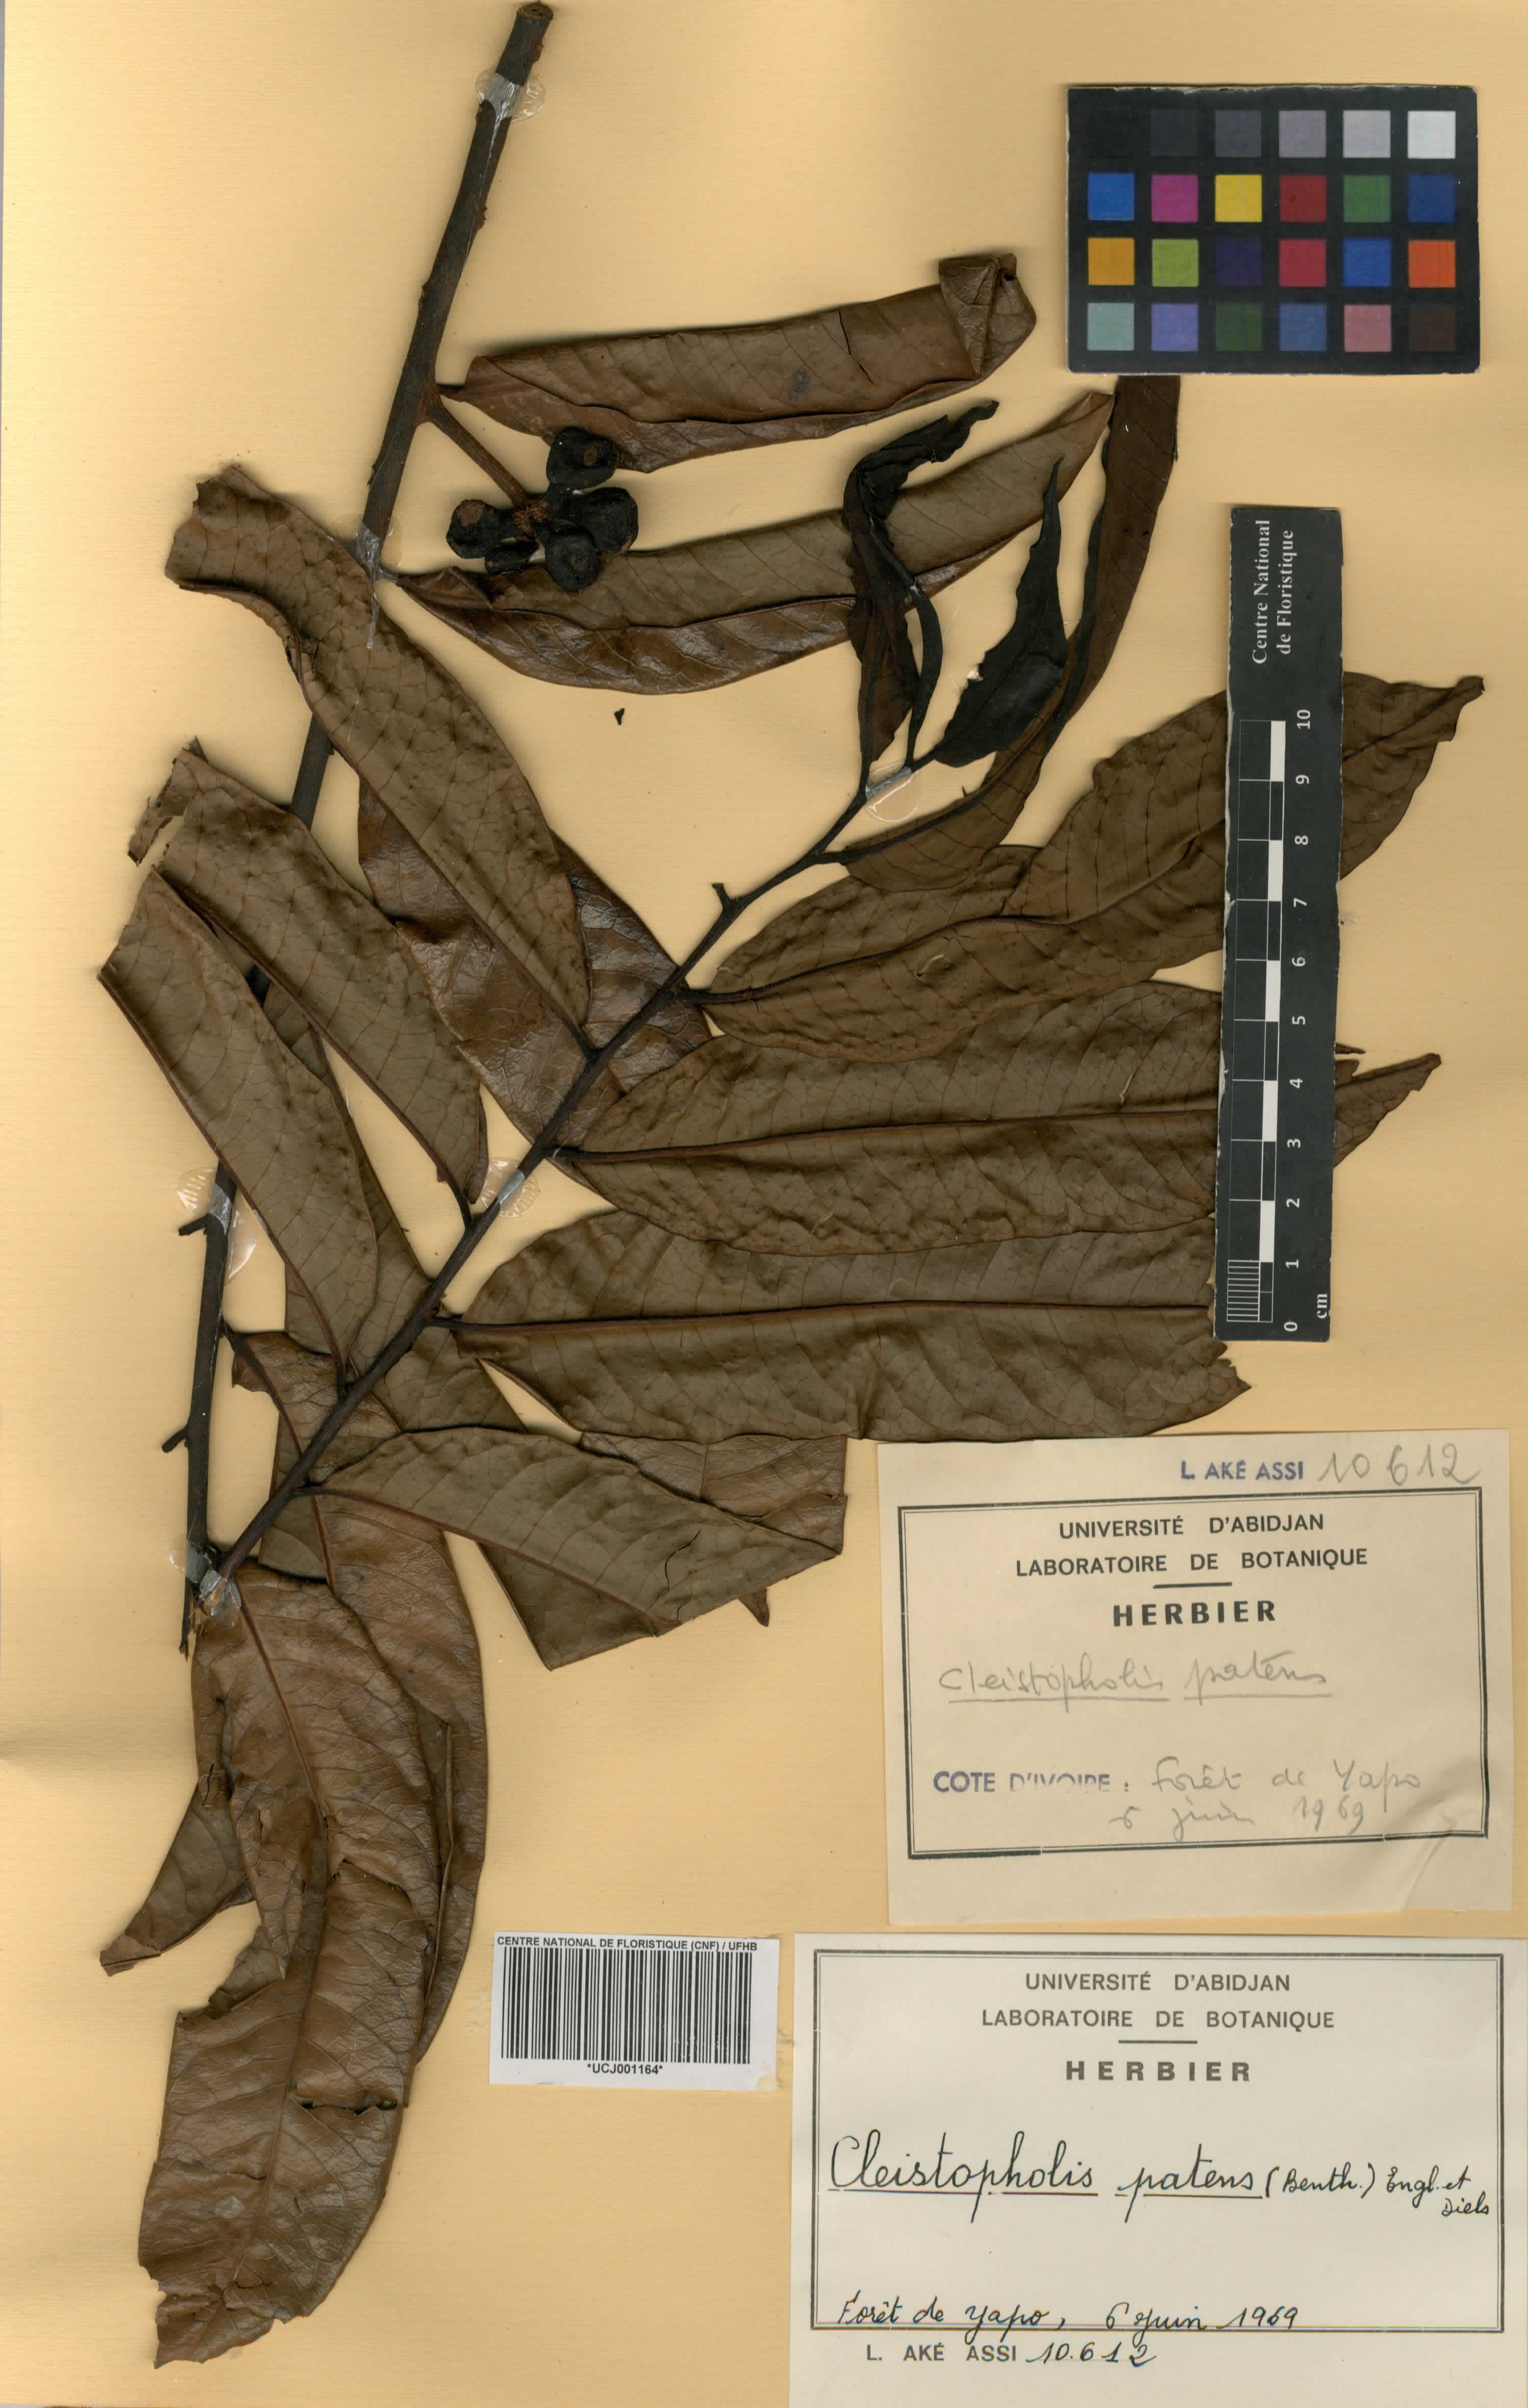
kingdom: Plantae
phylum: Tracheophyta
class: Magnoliopsida
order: Magnoliales
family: Annonaceae
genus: Cleistopholis
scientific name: Cleistopholis patens
